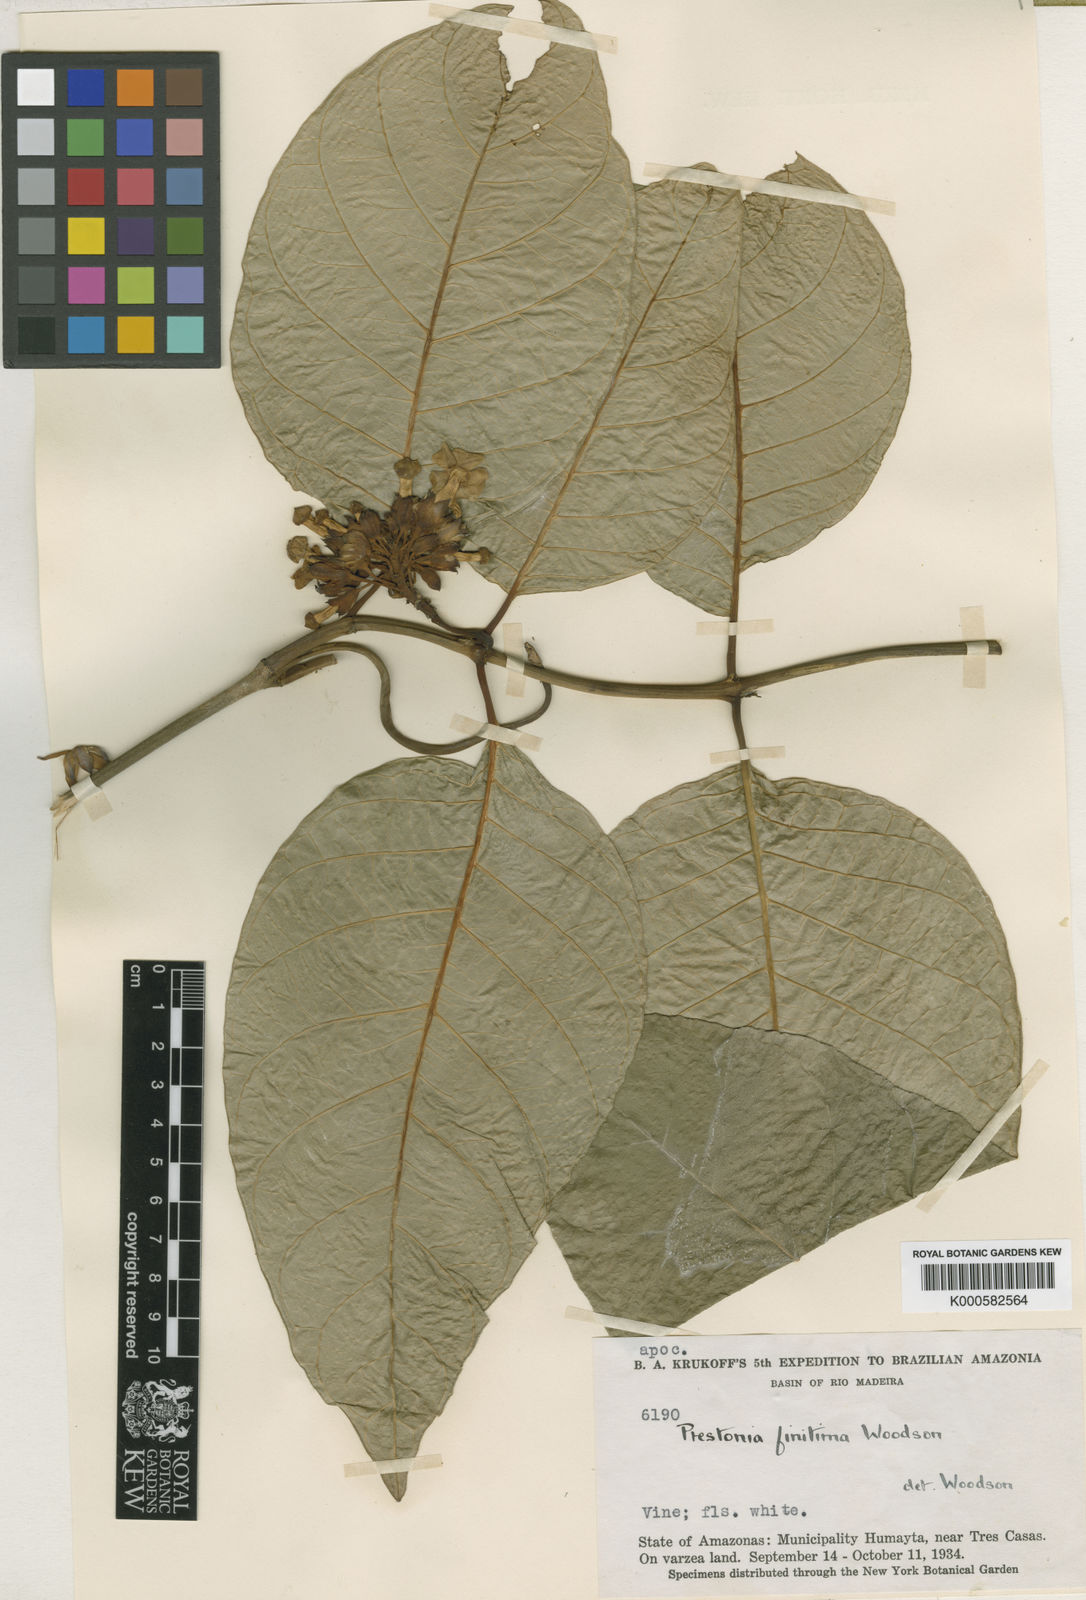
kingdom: Plantae
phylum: Tracheophyta
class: Magnoliopsida
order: Gentianales
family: Apocynaceae
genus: Prestonia
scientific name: Prestonia finitima
